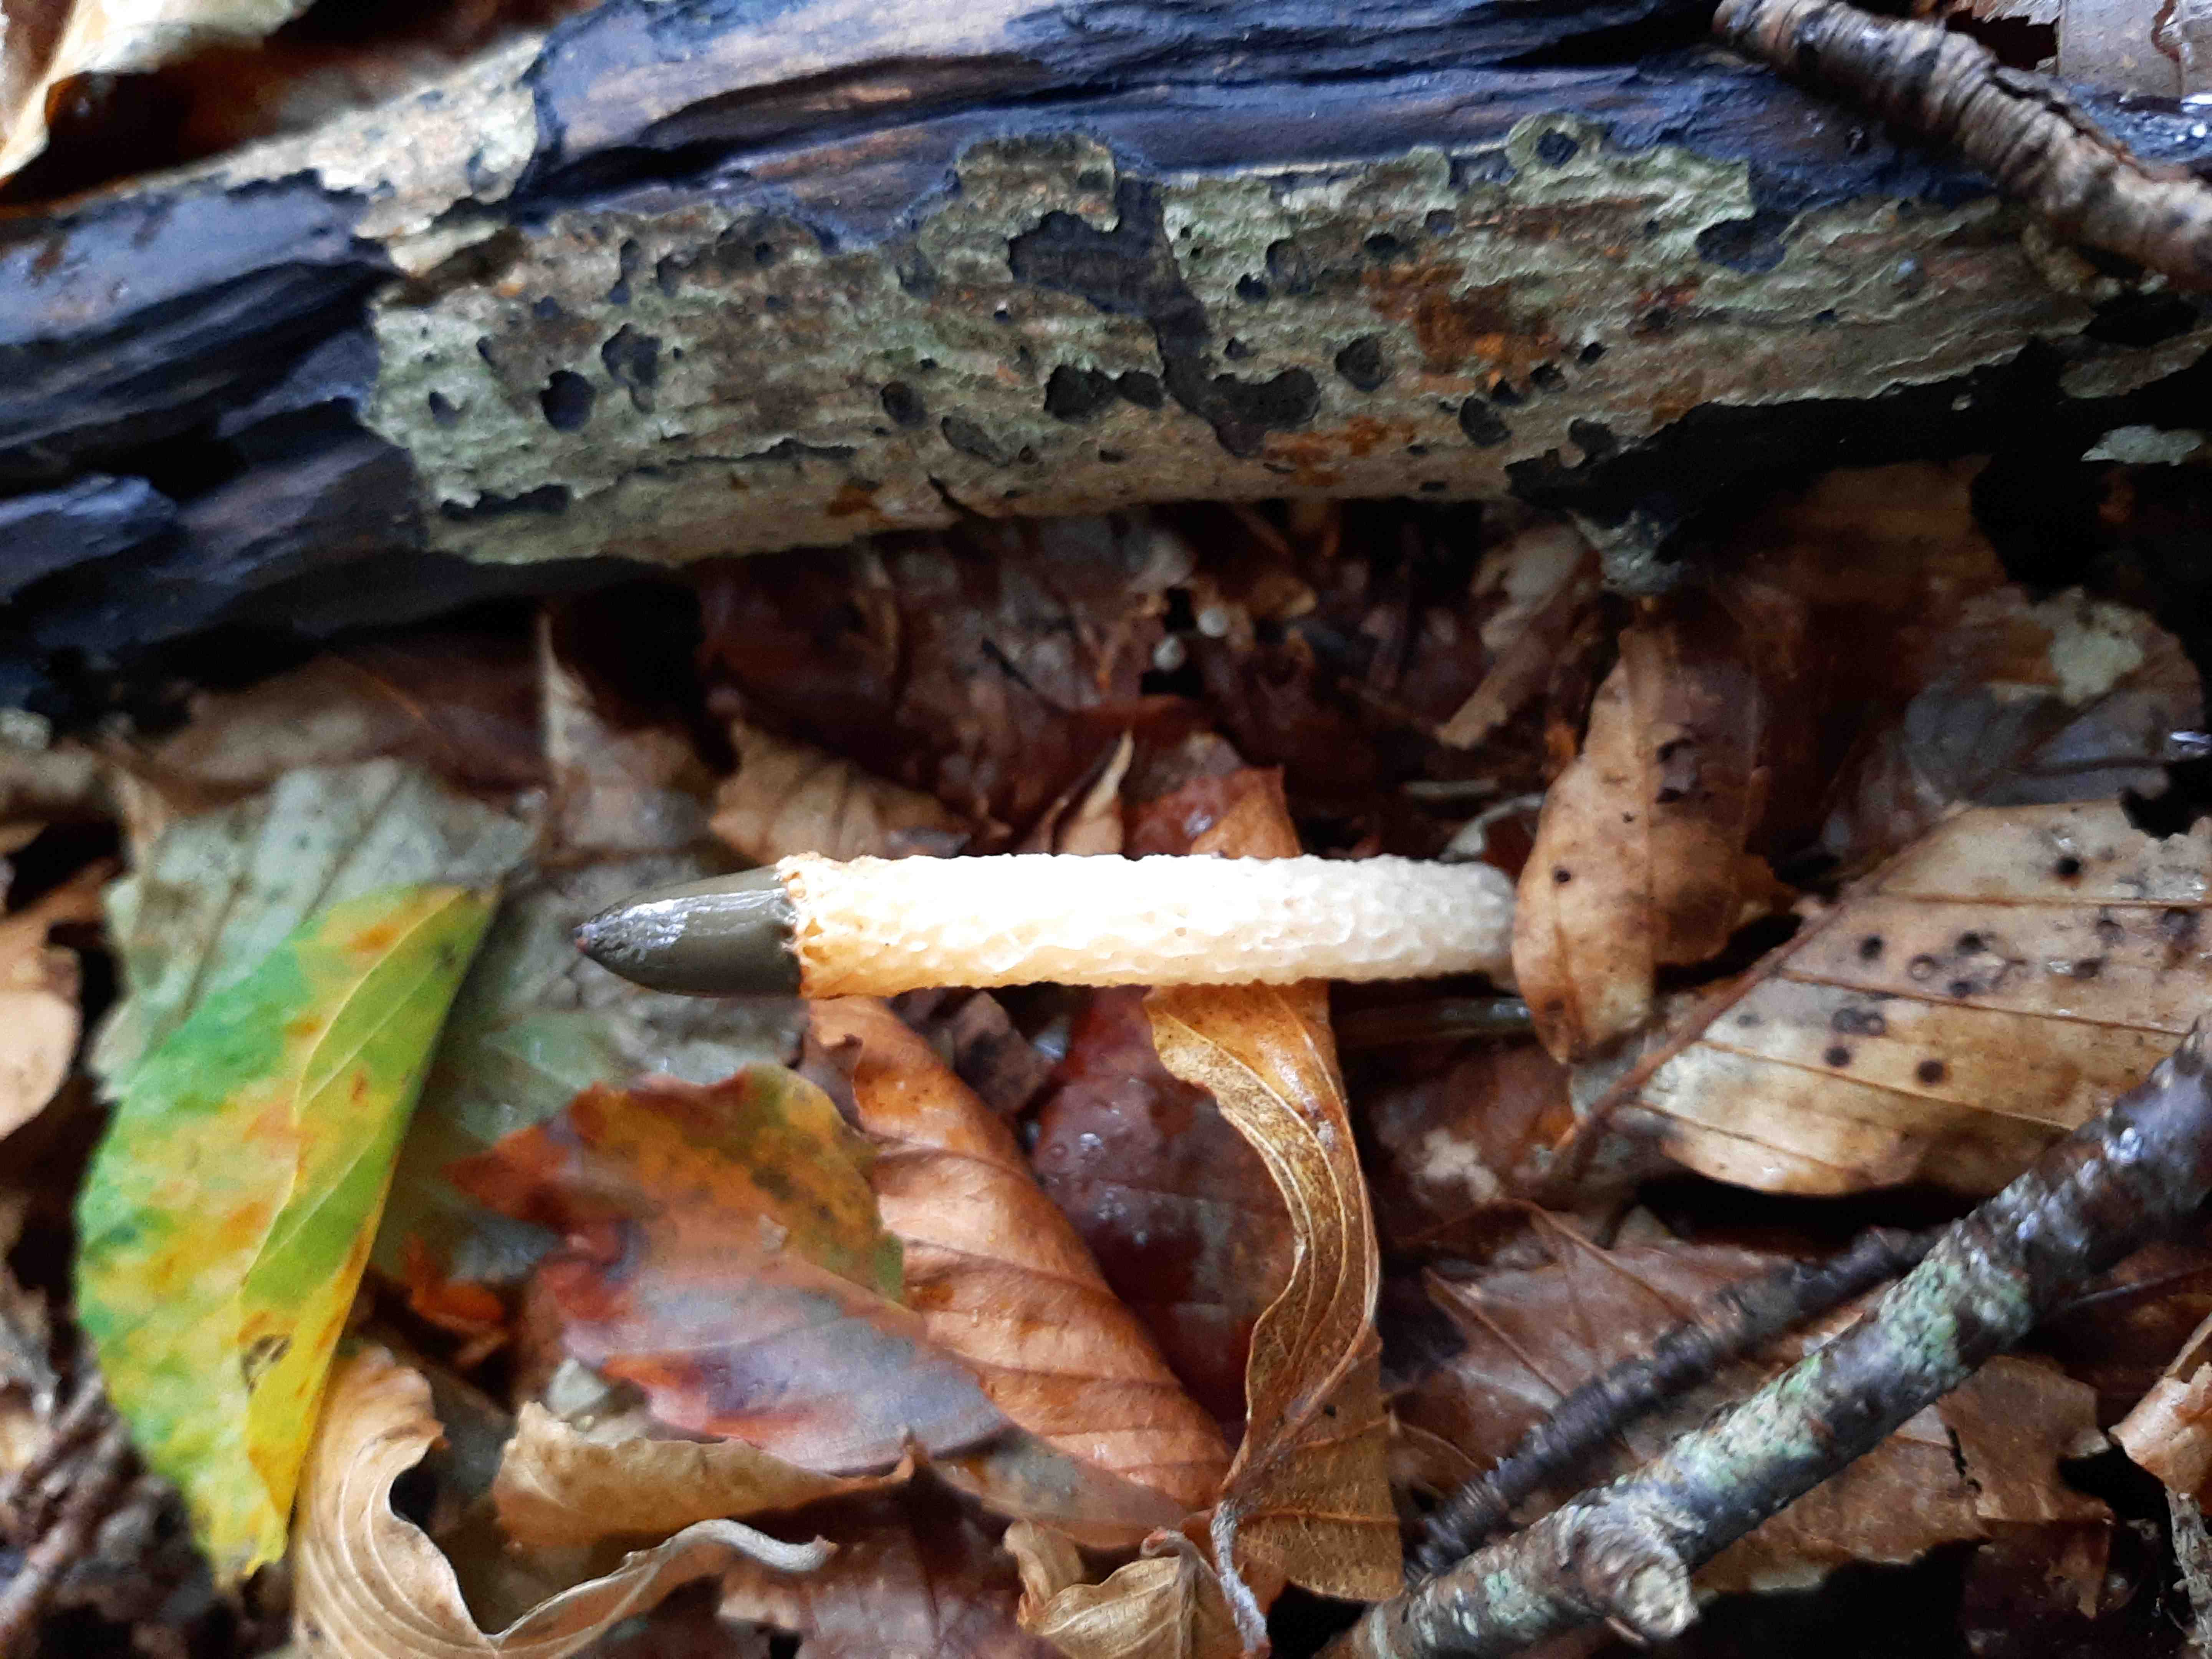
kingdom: Fungi
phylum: Basidiomycota
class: Agaricomycetes
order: Phallales
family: Phallaceae
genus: Mutinus
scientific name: Mutinus caninus
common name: hunde-stinksvamp
